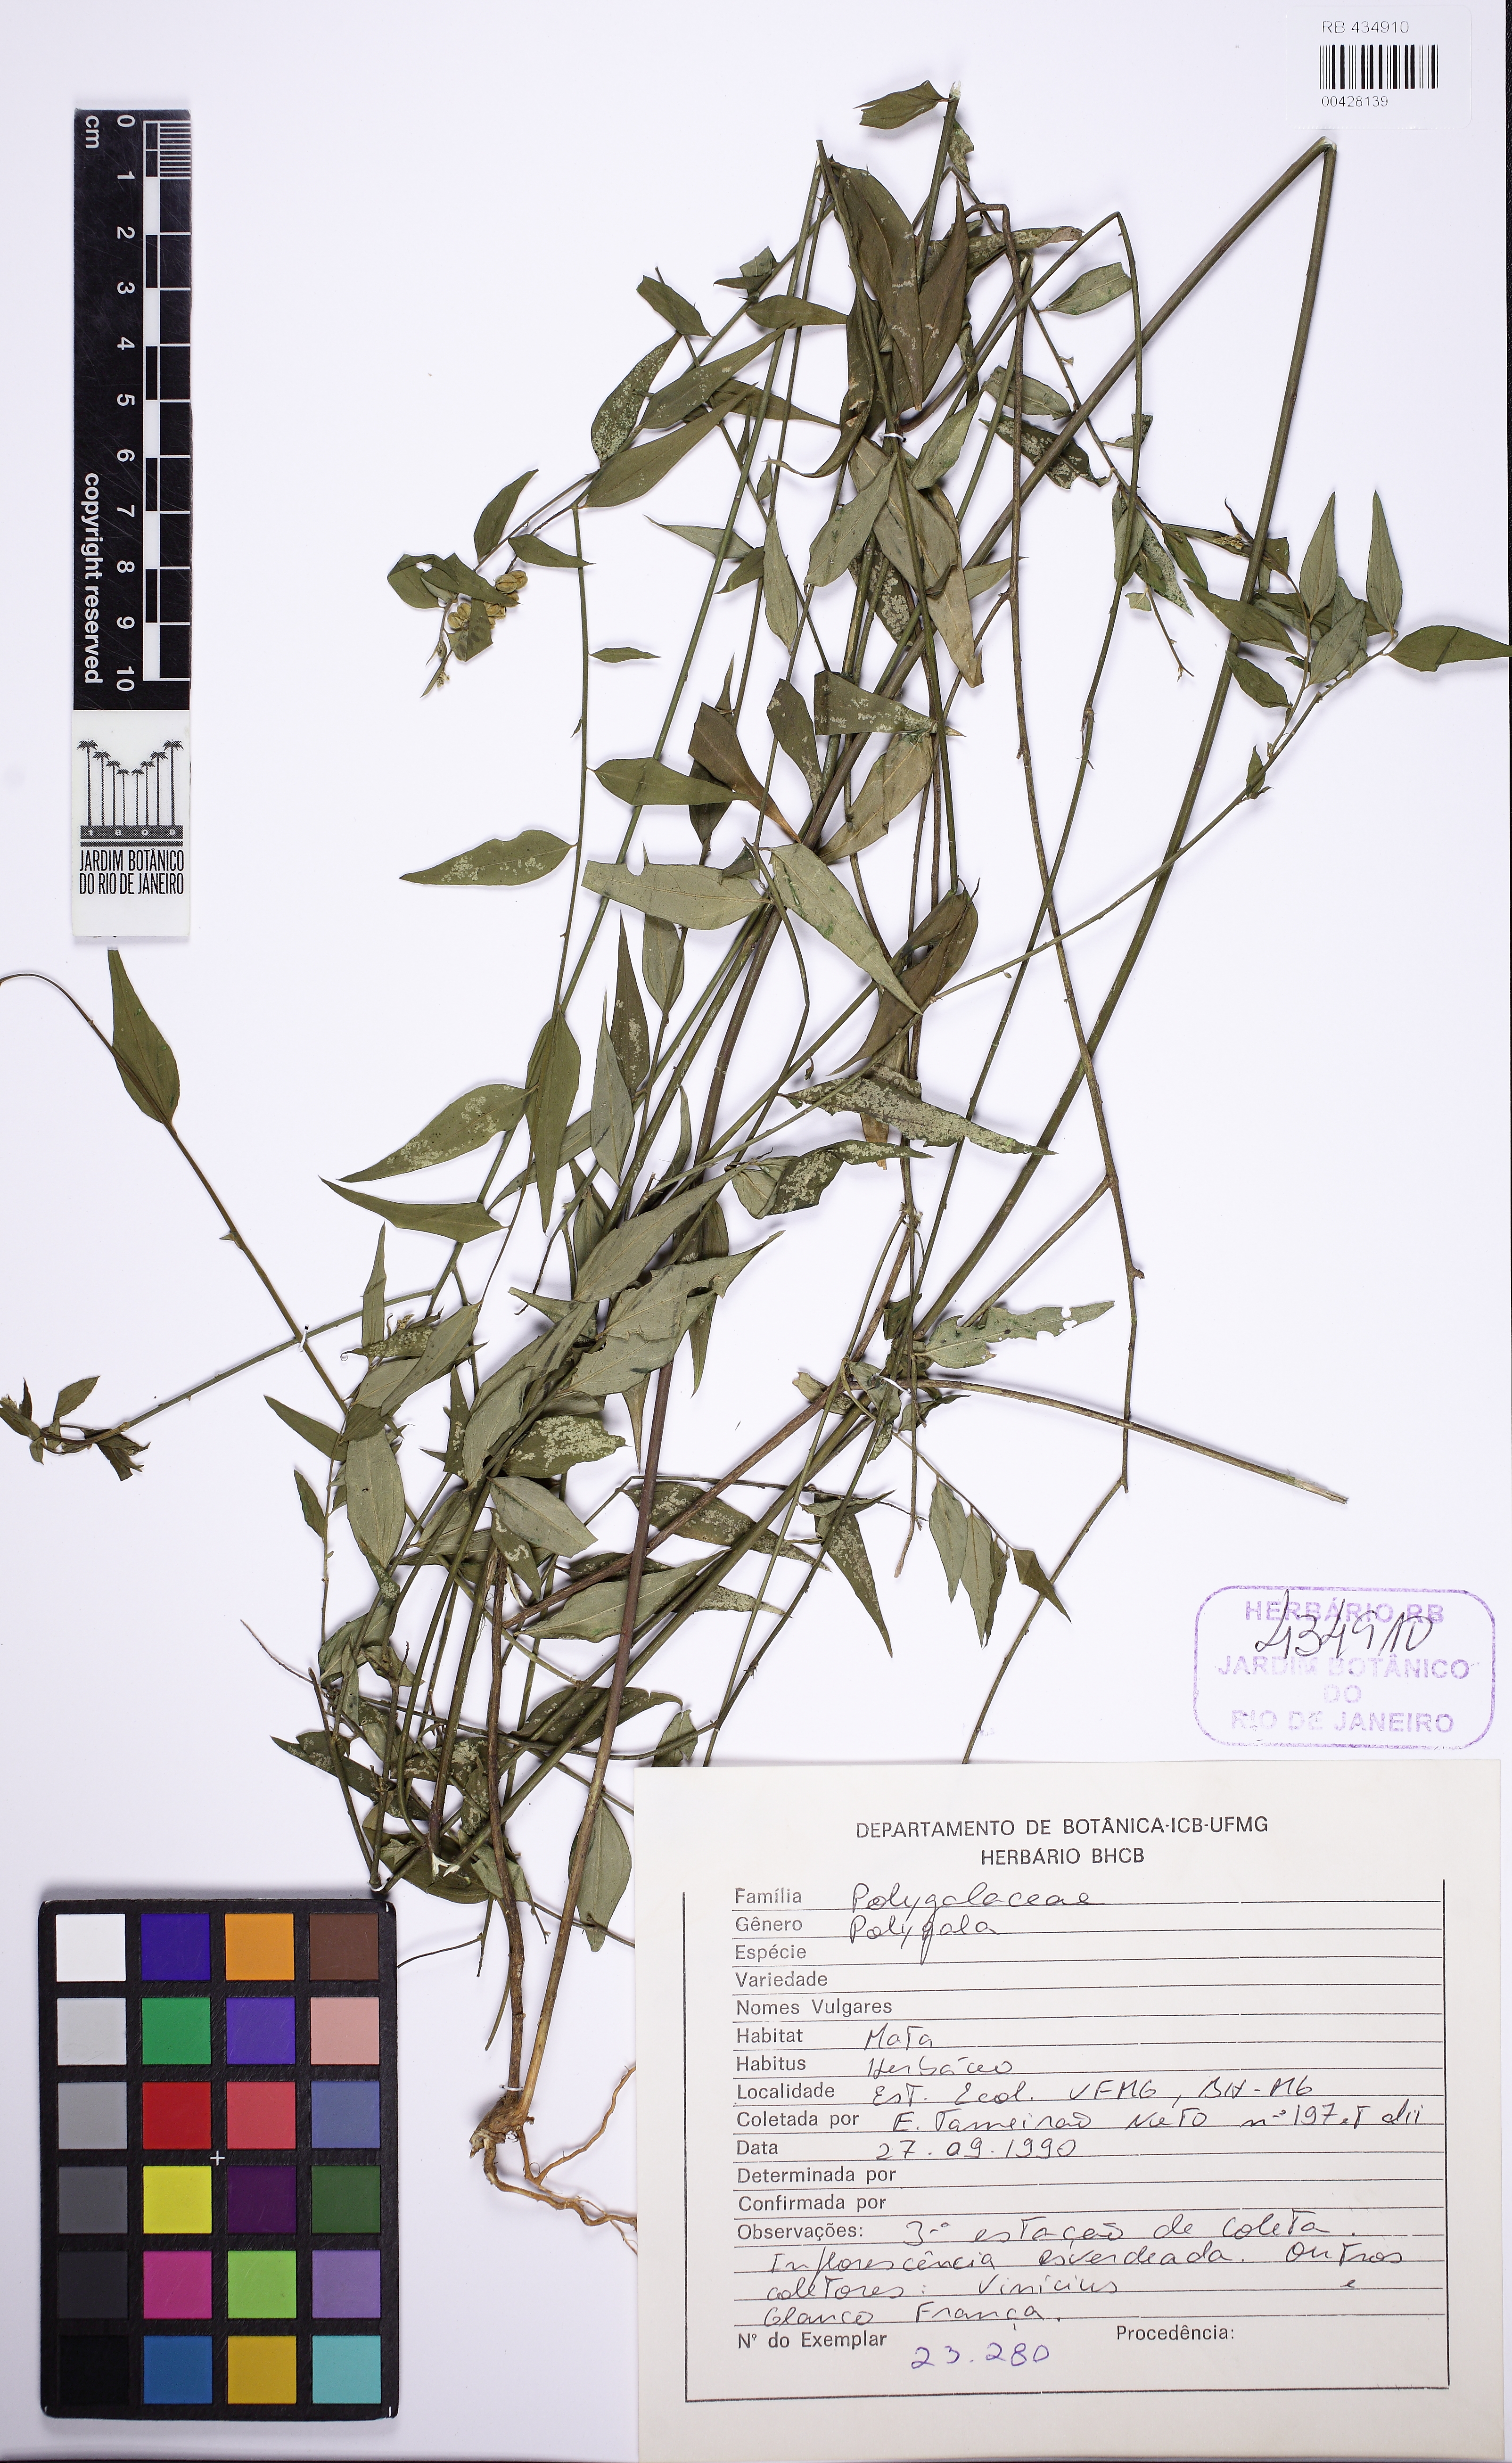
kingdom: Plantae
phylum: Tracheophyta
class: Magnoliopsida
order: Fabales
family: Polygalaceae
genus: Polygala
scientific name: Polygala lancifolia
